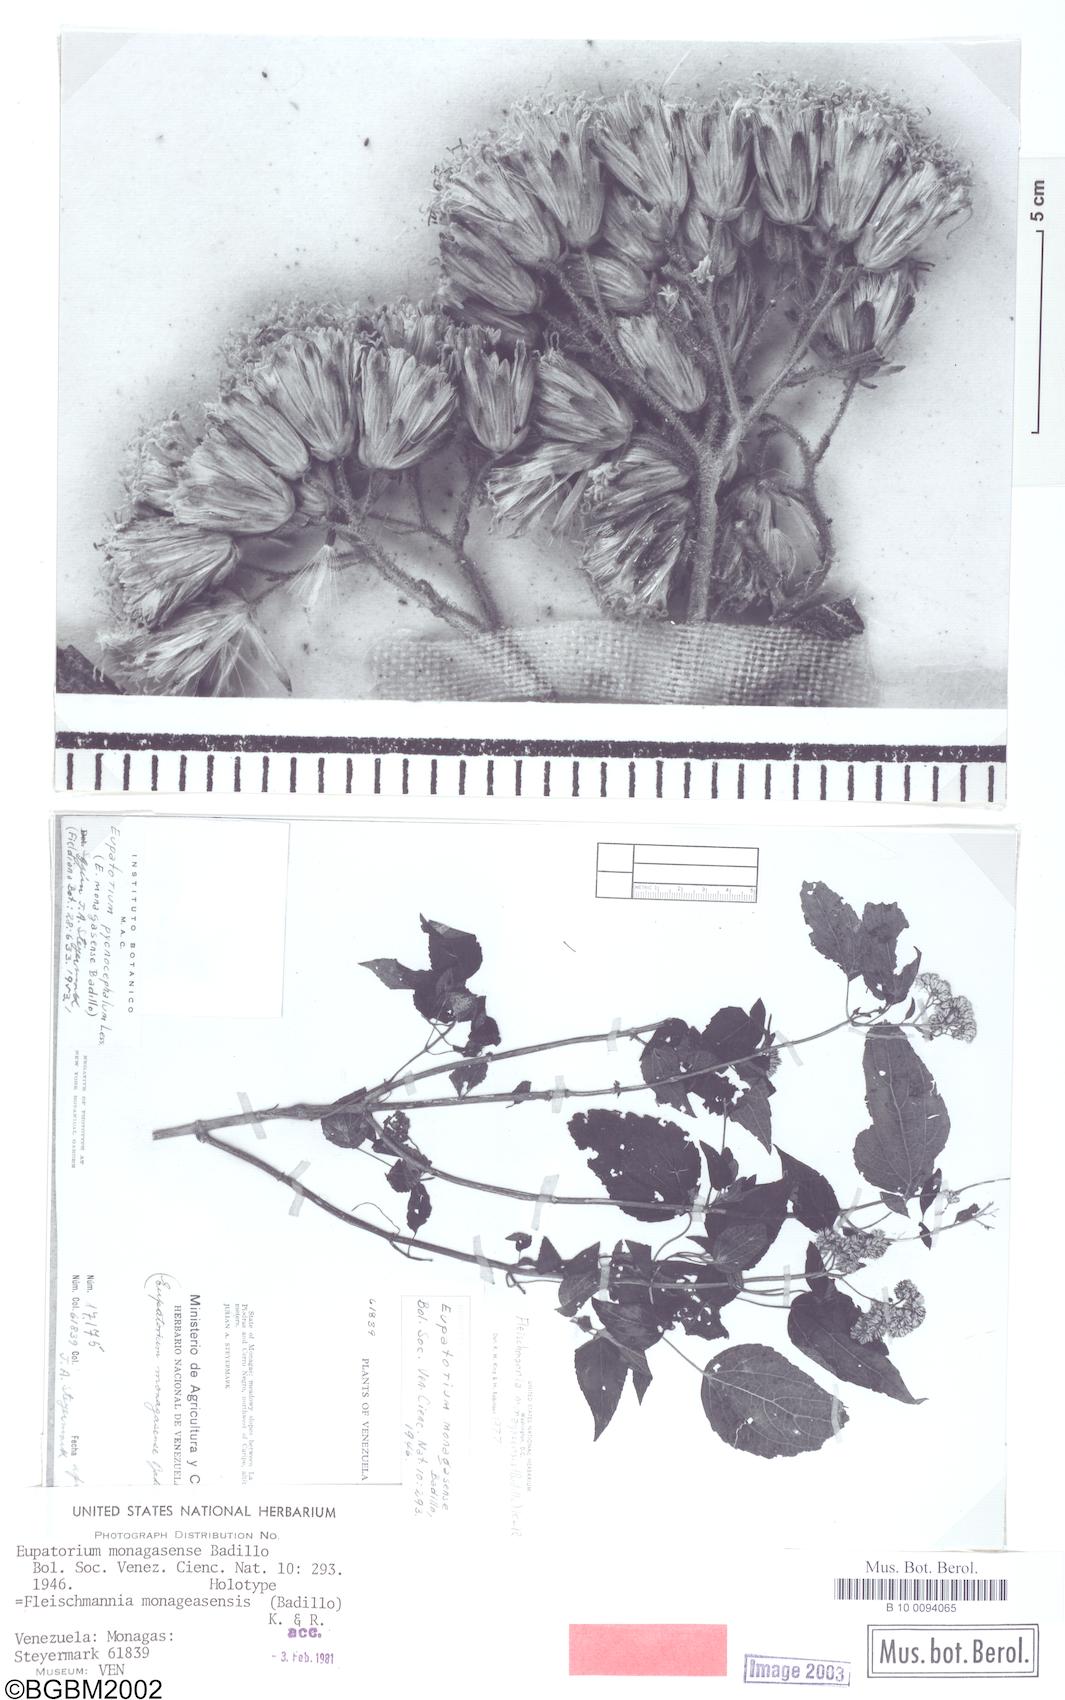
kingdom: Plantae
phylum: Tracheophyta
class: Magnoliopsida
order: Asterales
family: Asteraceae
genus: Fleischmannia
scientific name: Fleischmannia monagasensis
